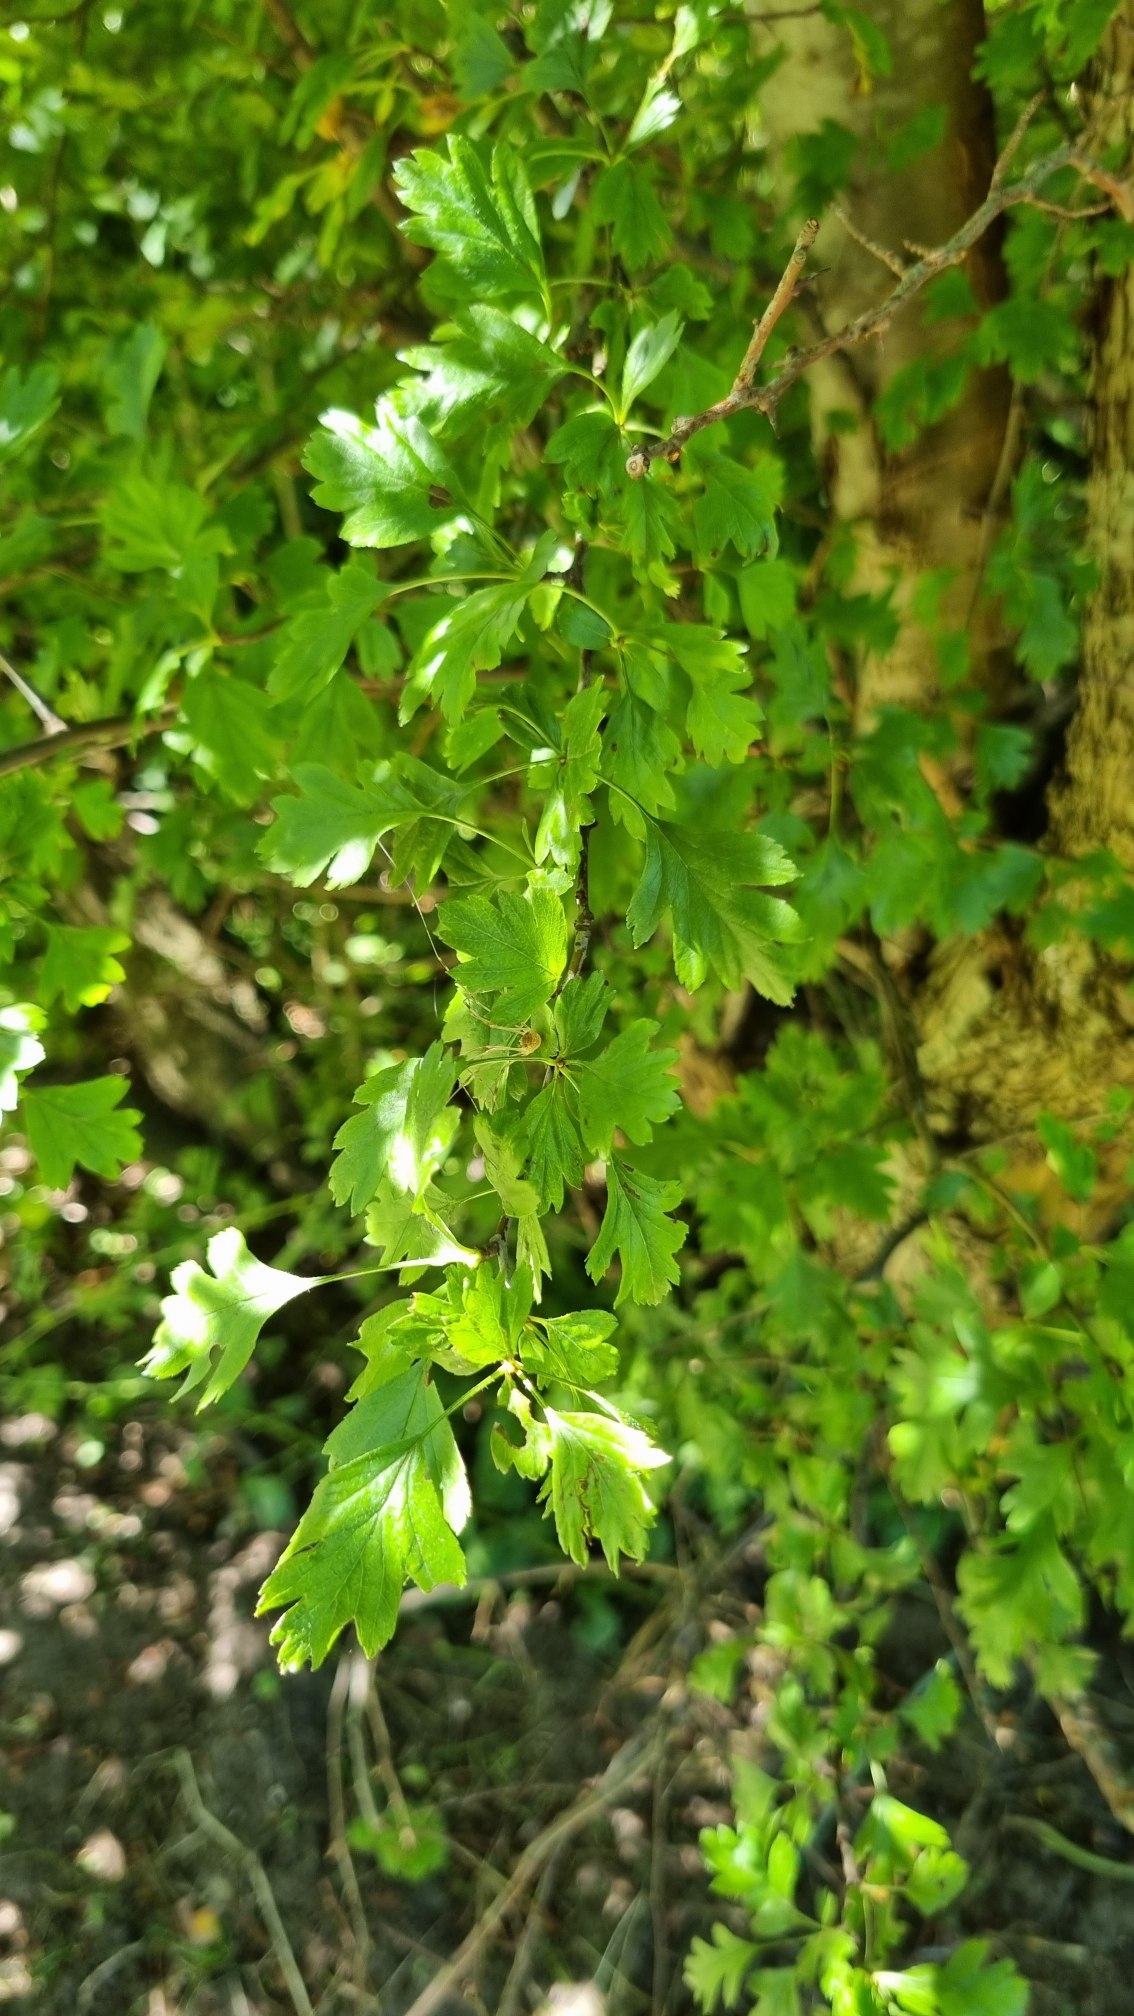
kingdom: Plantae
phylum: Tracheophyta
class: Magnoliopsida
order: Rosales
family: Rosaceae
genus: Crataegus
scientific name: Crataegus subsphaerica
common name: Engriflet hvidtjørn × koral-hvidtjørn
